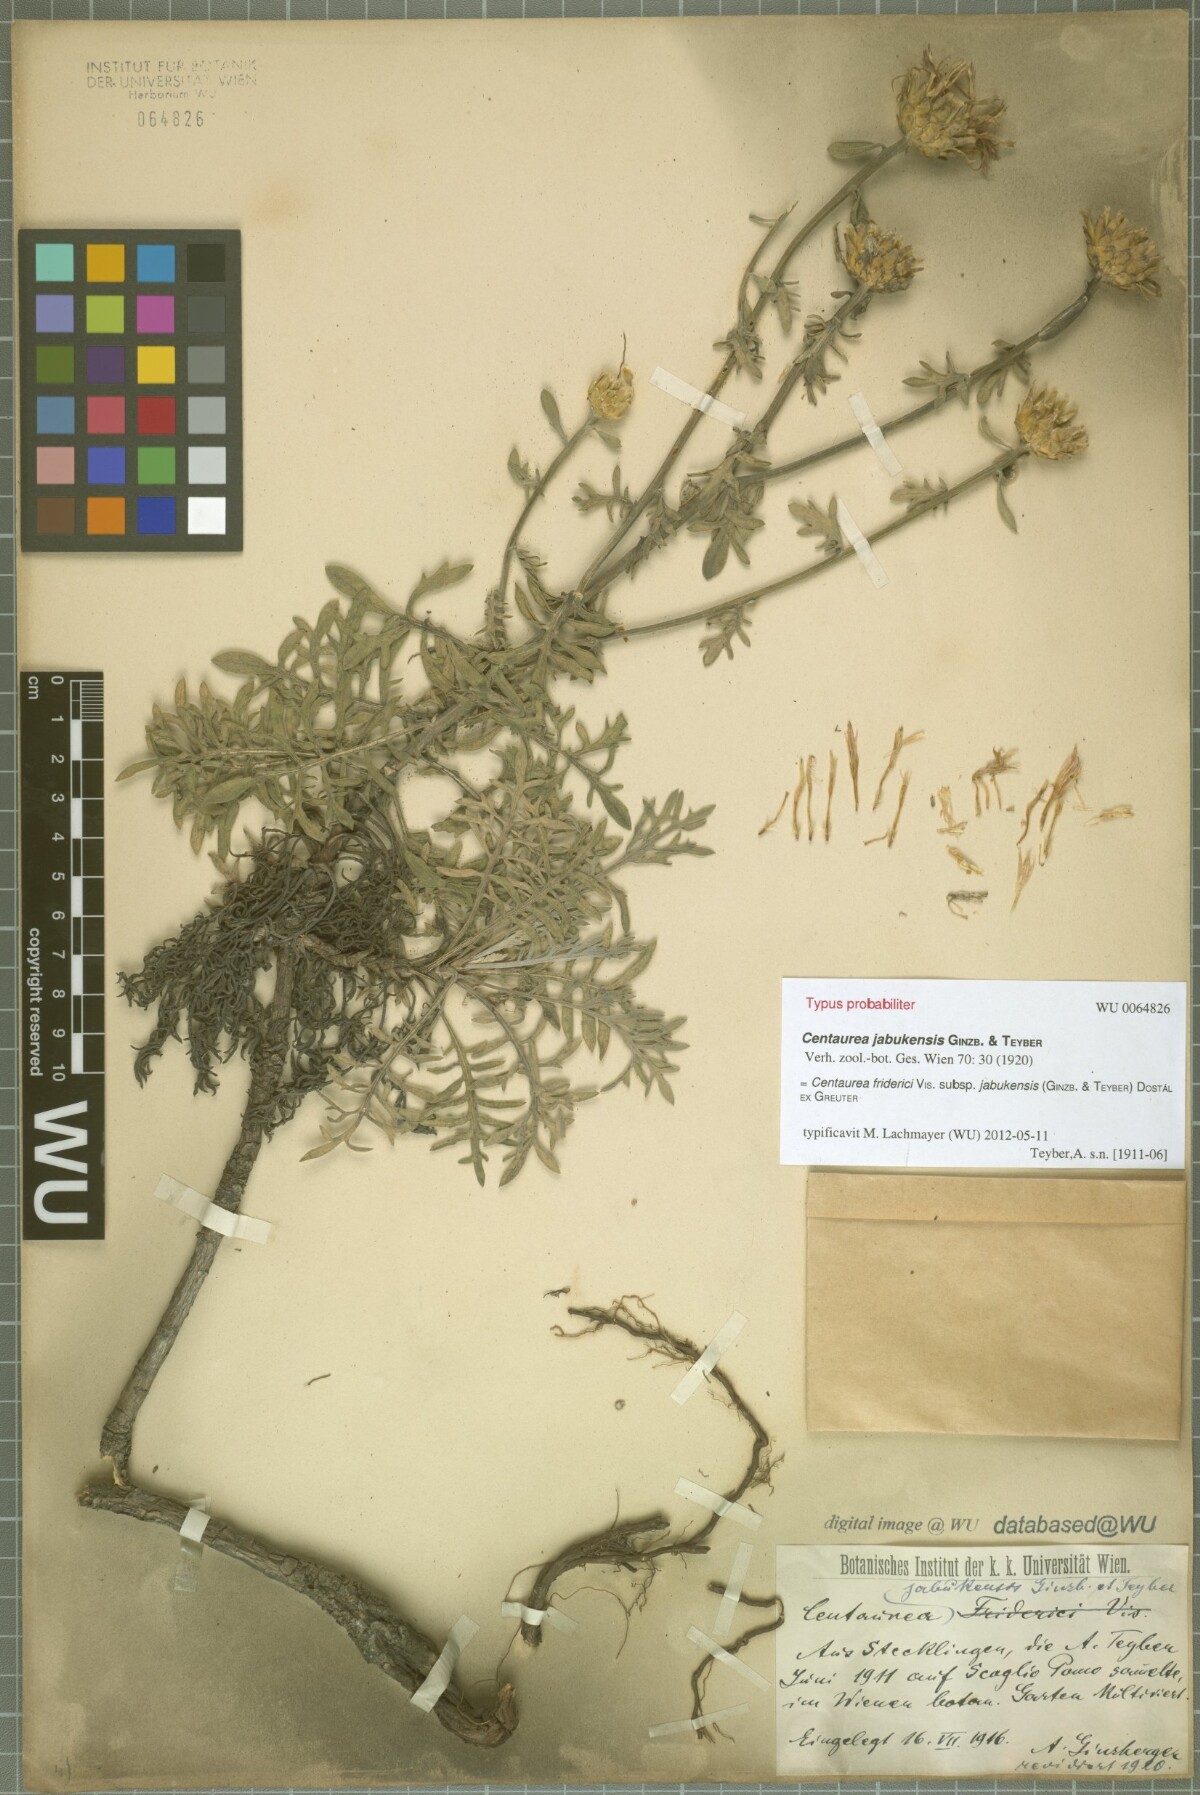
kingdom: Plantae
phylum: Tracheophyta
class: Magnoliopsida
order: Asterales
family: Asteraceae
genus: Centaurea
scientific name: Centaurea friderici
